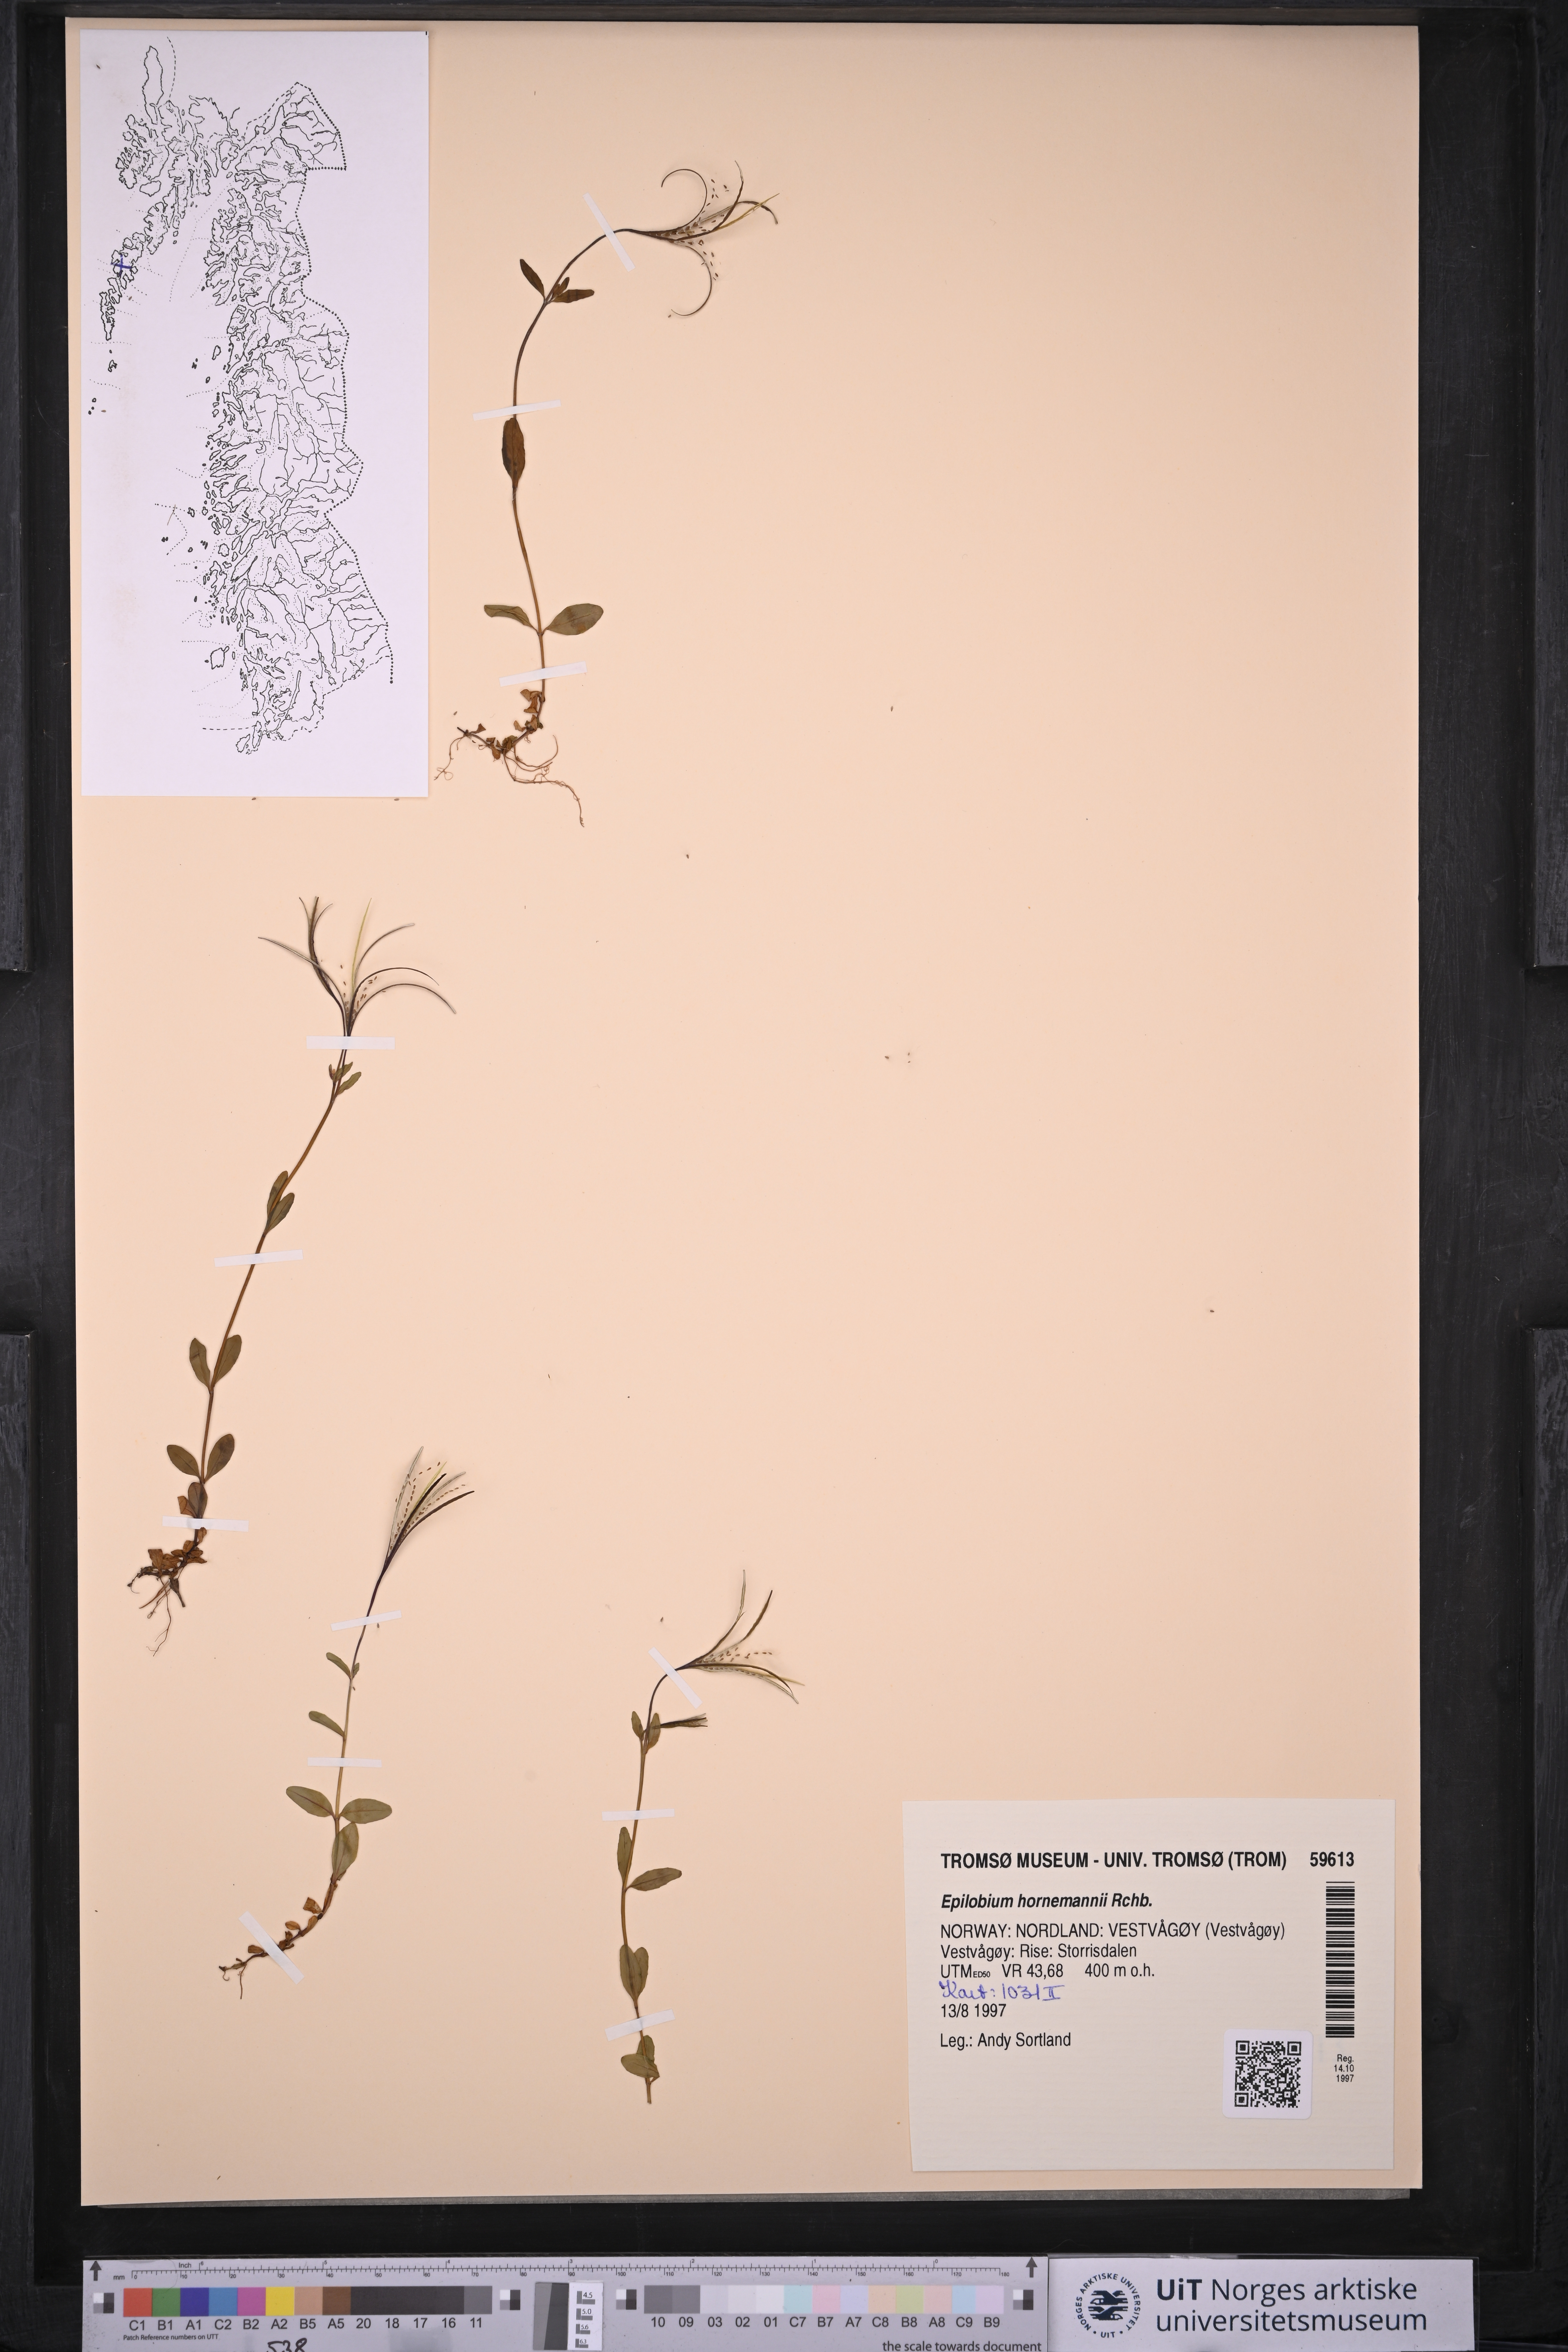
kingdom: Plantae
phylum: Tracheophyta
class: Magnoliopsida
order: Myrtales
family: Onagraceae
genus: Epilobium
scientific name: Epilobium hornemannii
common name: Hornemann's willowherb
